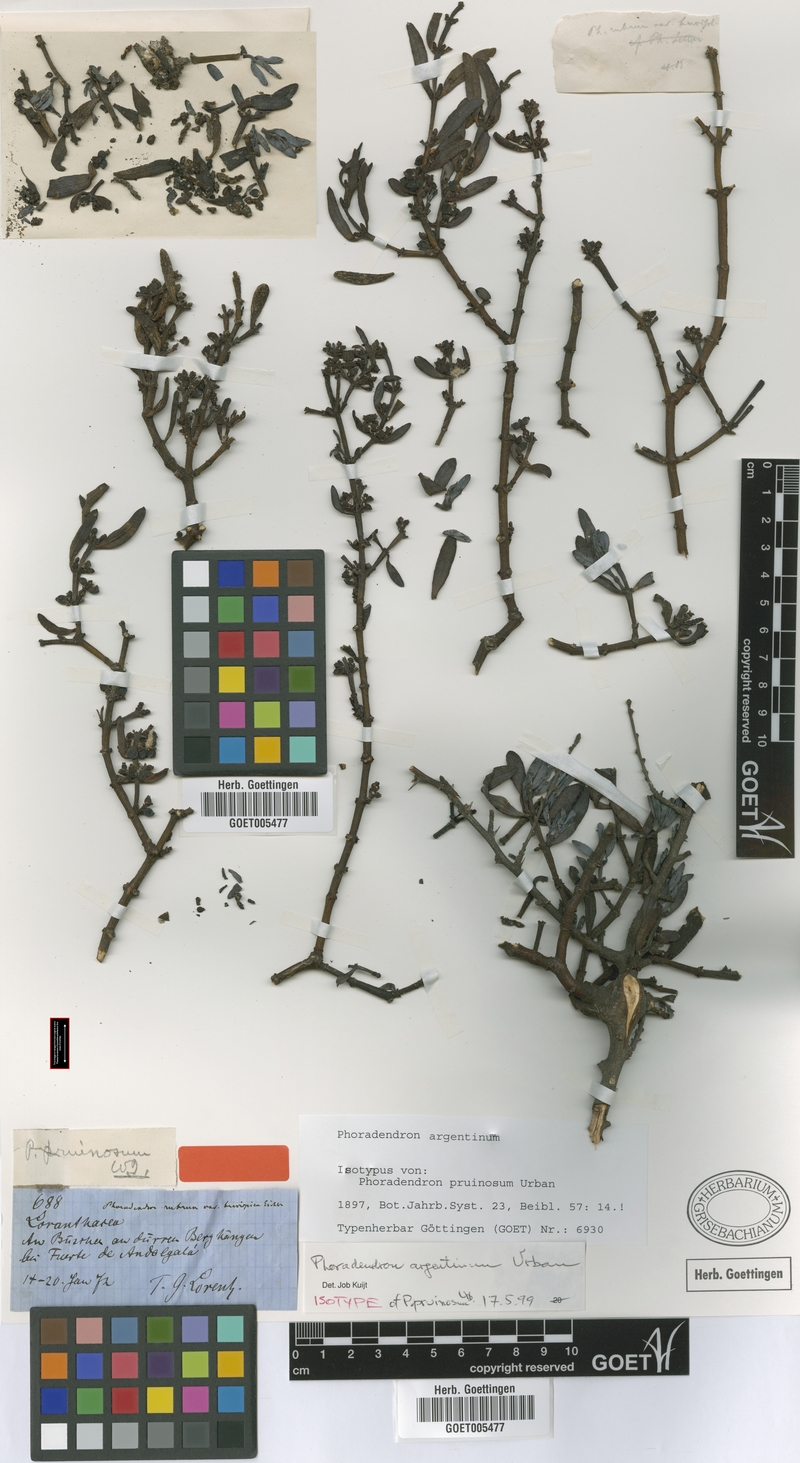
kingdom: Plantae
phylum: Tracheophyta
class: Magnoliopsida
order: Santalales
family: Viscaceae
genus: Phoradendron
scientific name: Phoradendron argentinum
